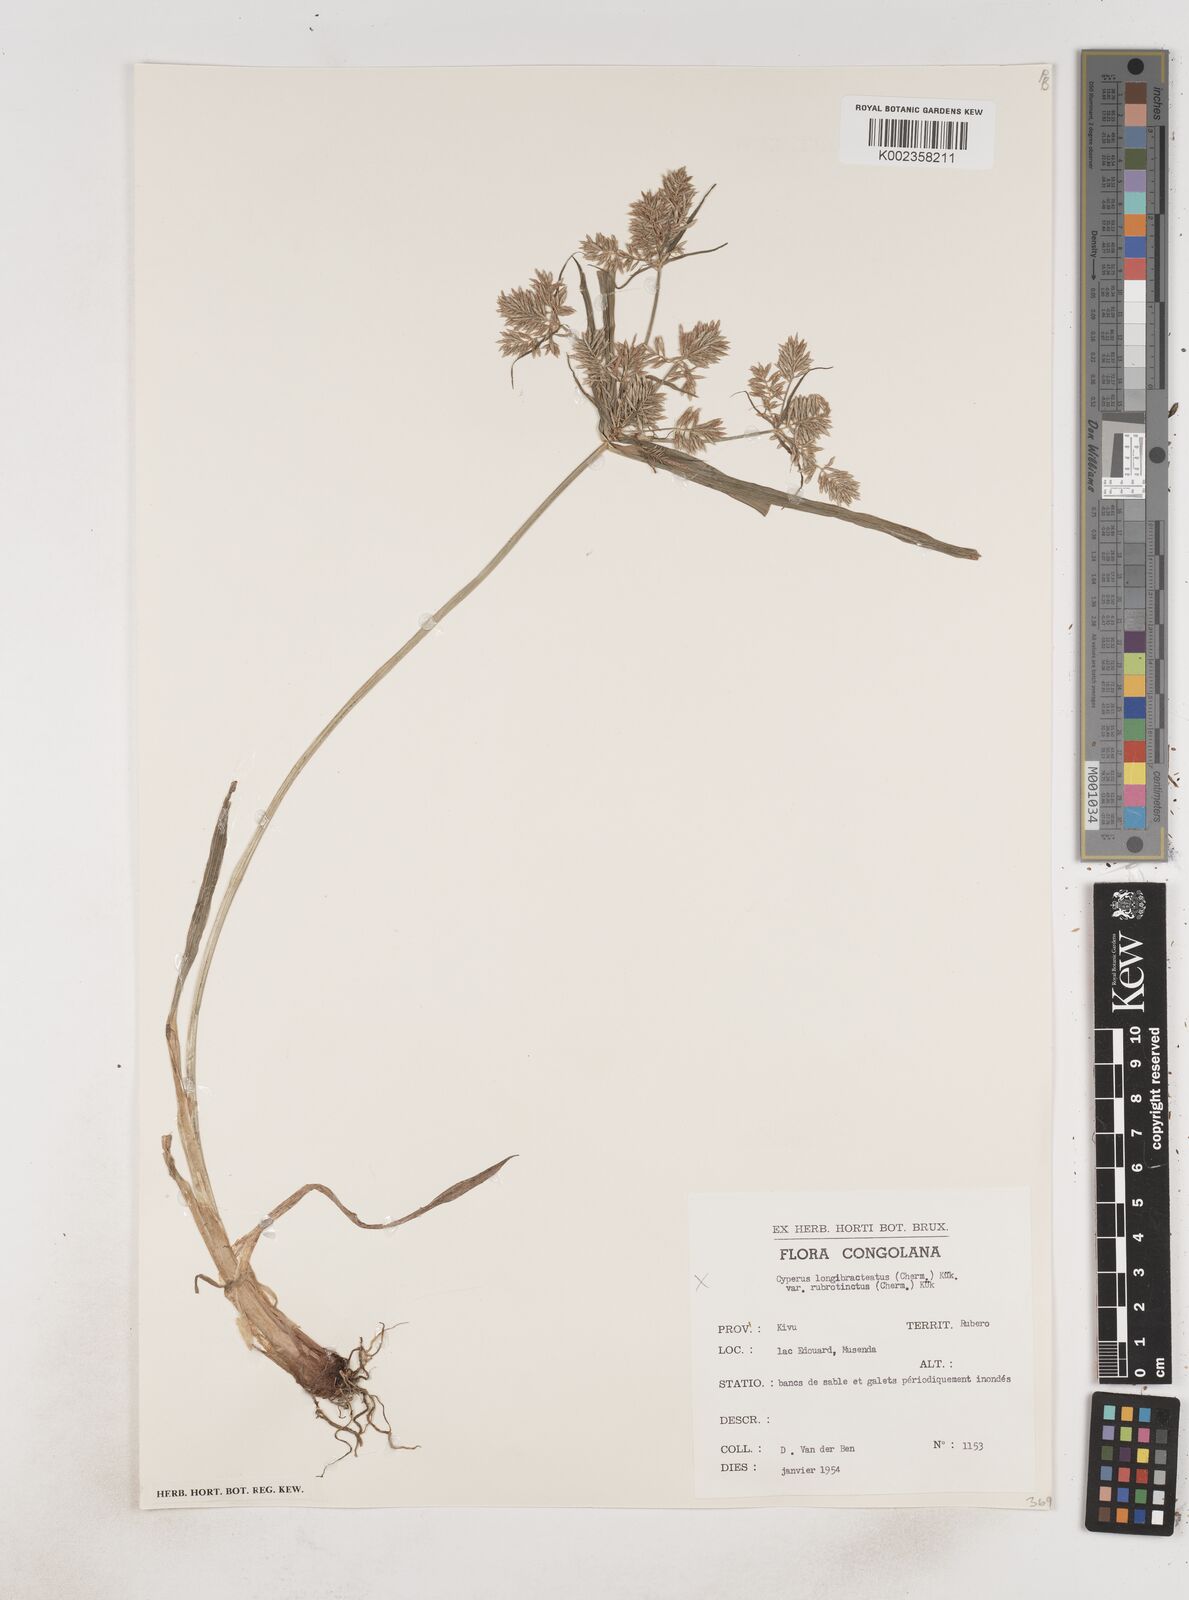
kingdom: Plantae
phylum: Tracheophyta
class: Liliopsida
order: Poales
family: Cyperaceae
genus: Cyperus
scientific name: Cyperus longus
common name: Galingale
